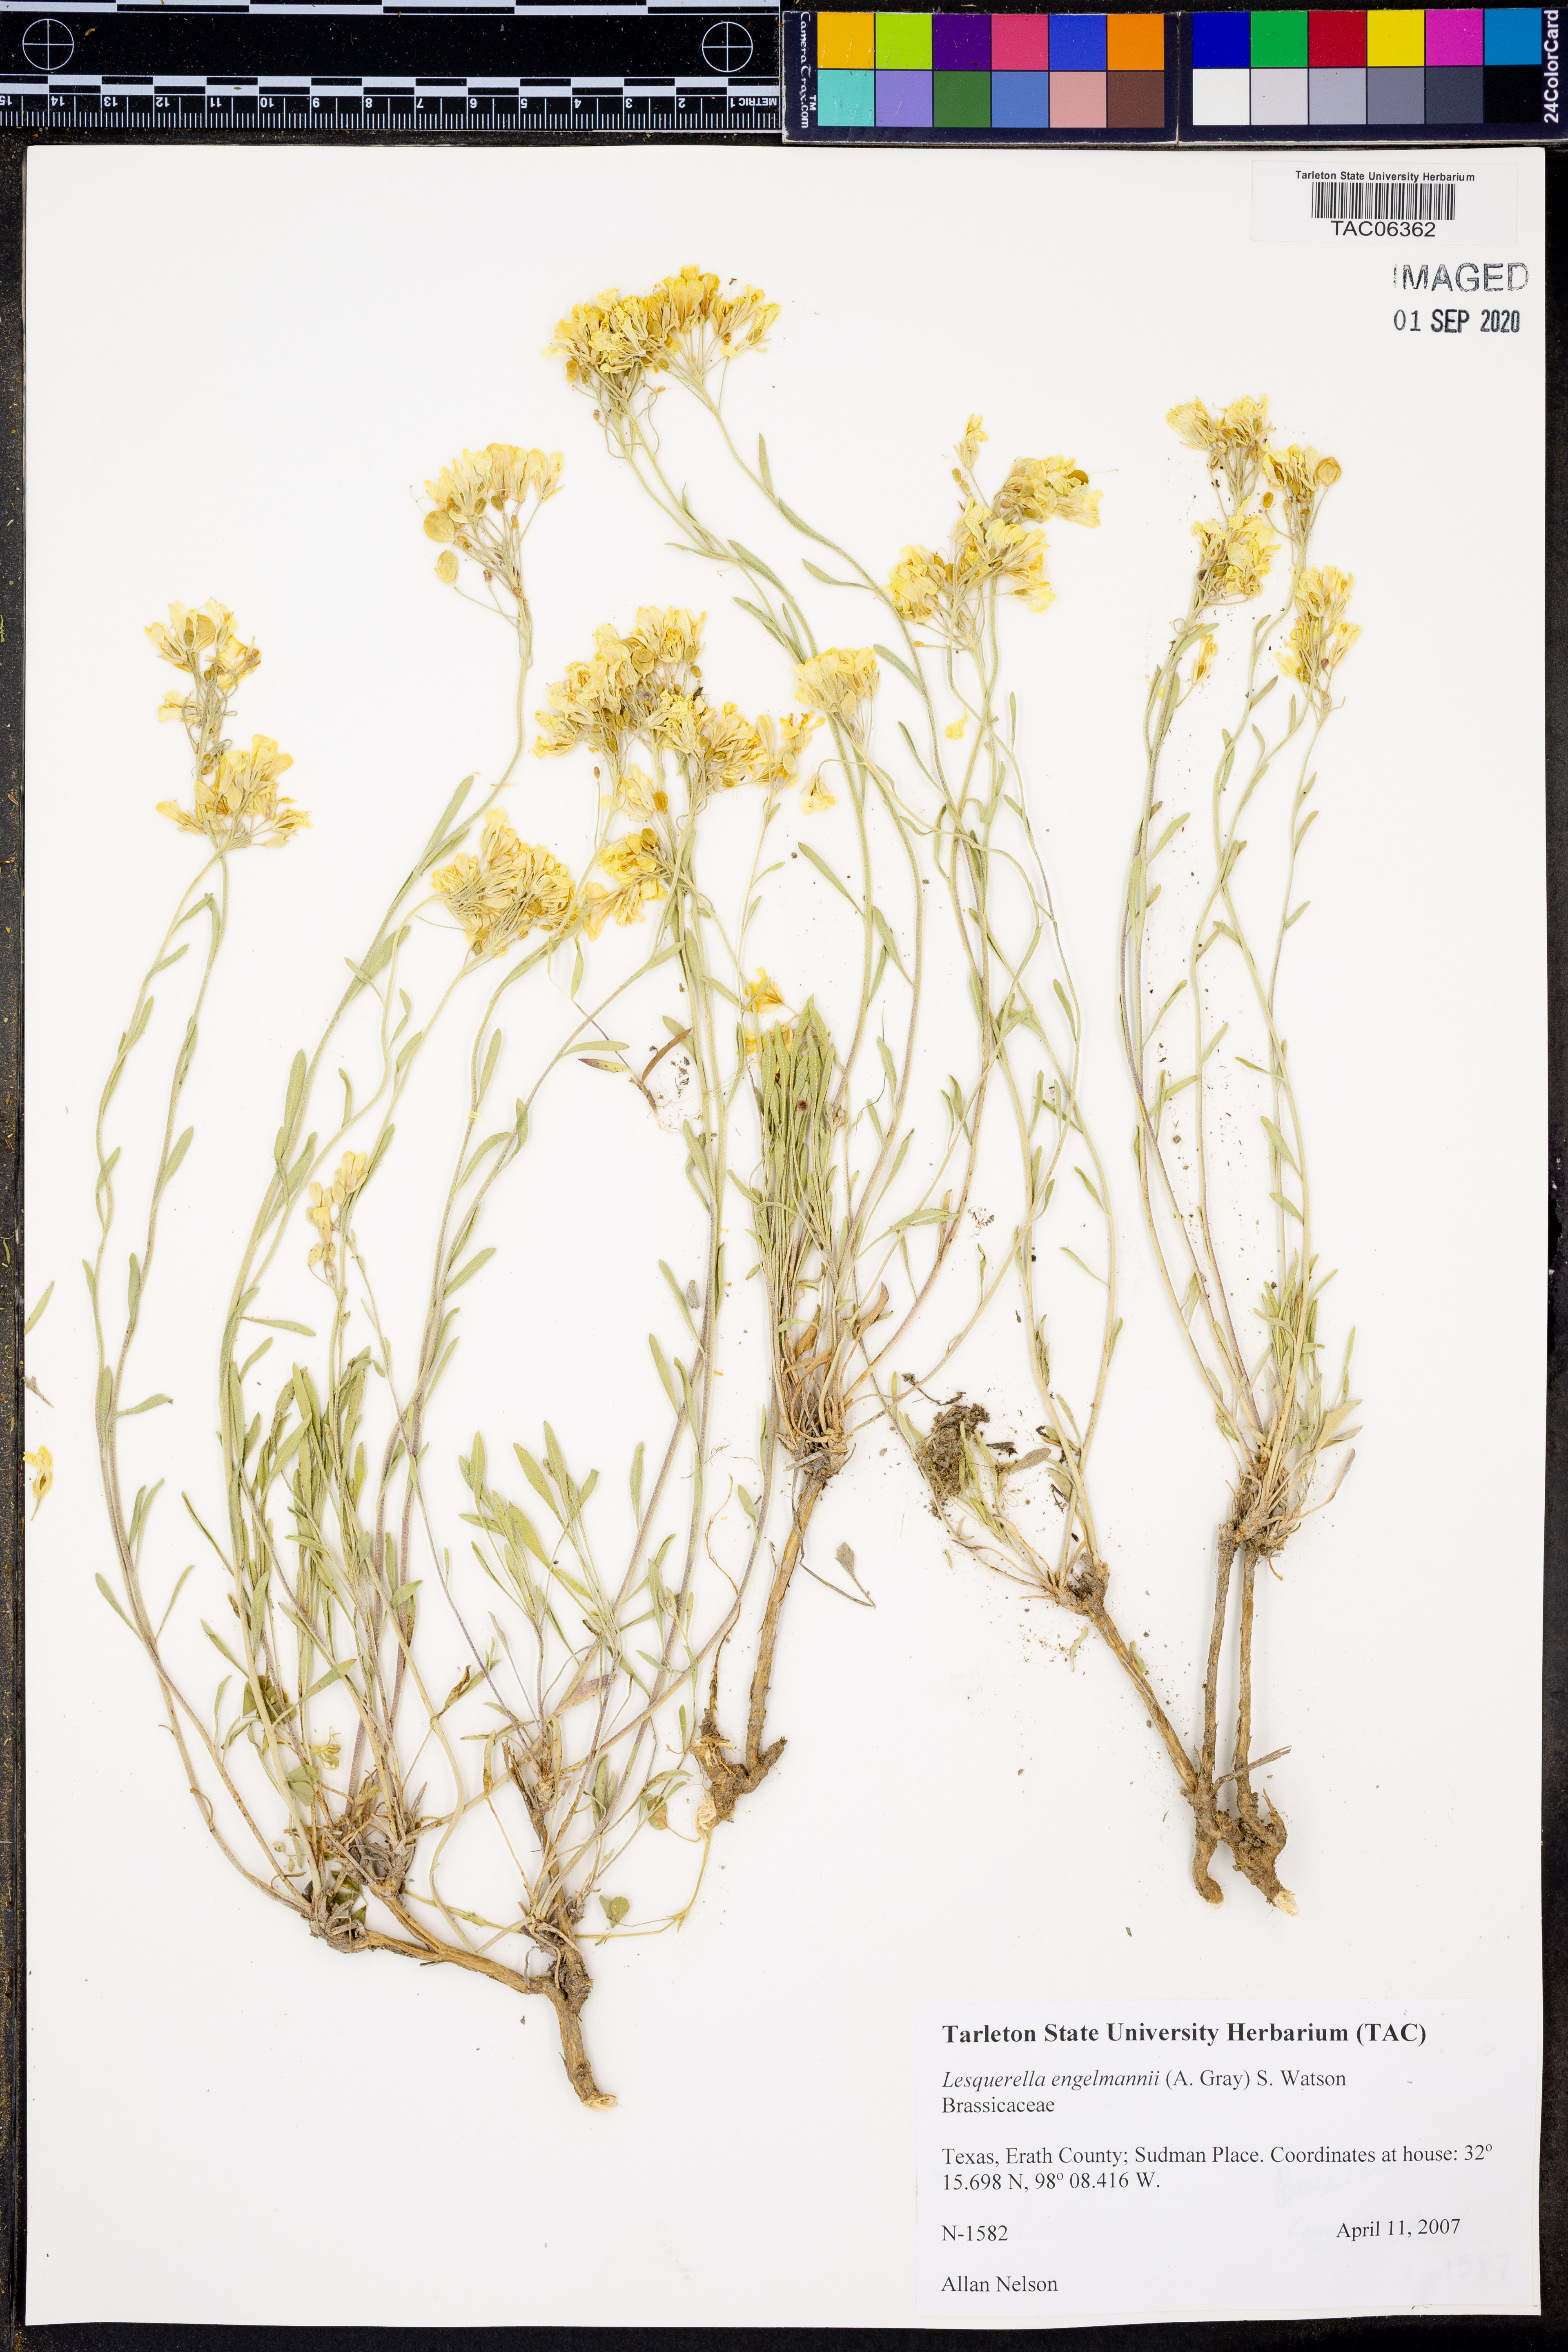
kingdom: Plantae
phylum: Tracheophyta
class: Magnoliopsida
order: Brassicales
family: Brassicaceae
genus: Physaria
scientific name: Physaria engelmannii
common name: Engelmann's bladderpod
